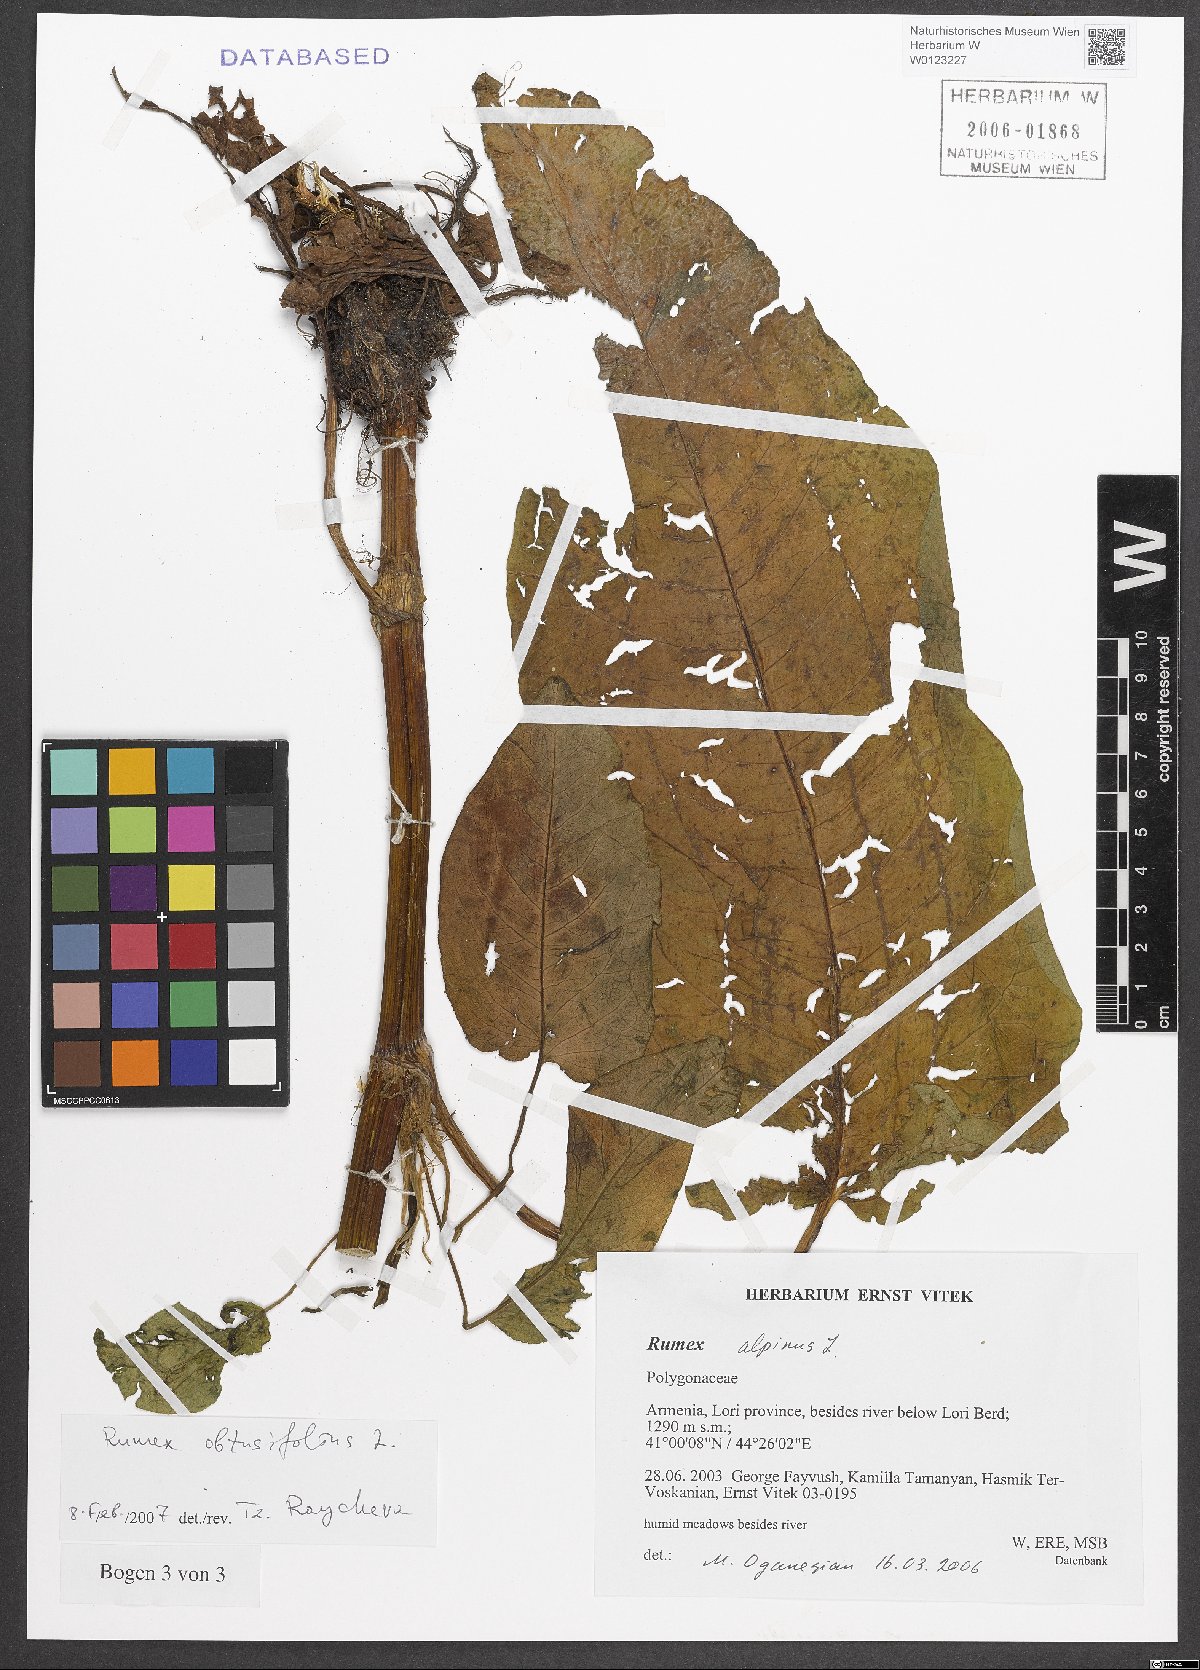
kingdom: Plantae
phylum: Tracheophyta
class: Magnoliopsida
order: Caryophyllales
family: Polygonaceae
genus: Rumex
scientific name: Rumex obtusifolius
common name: Bitter dock
